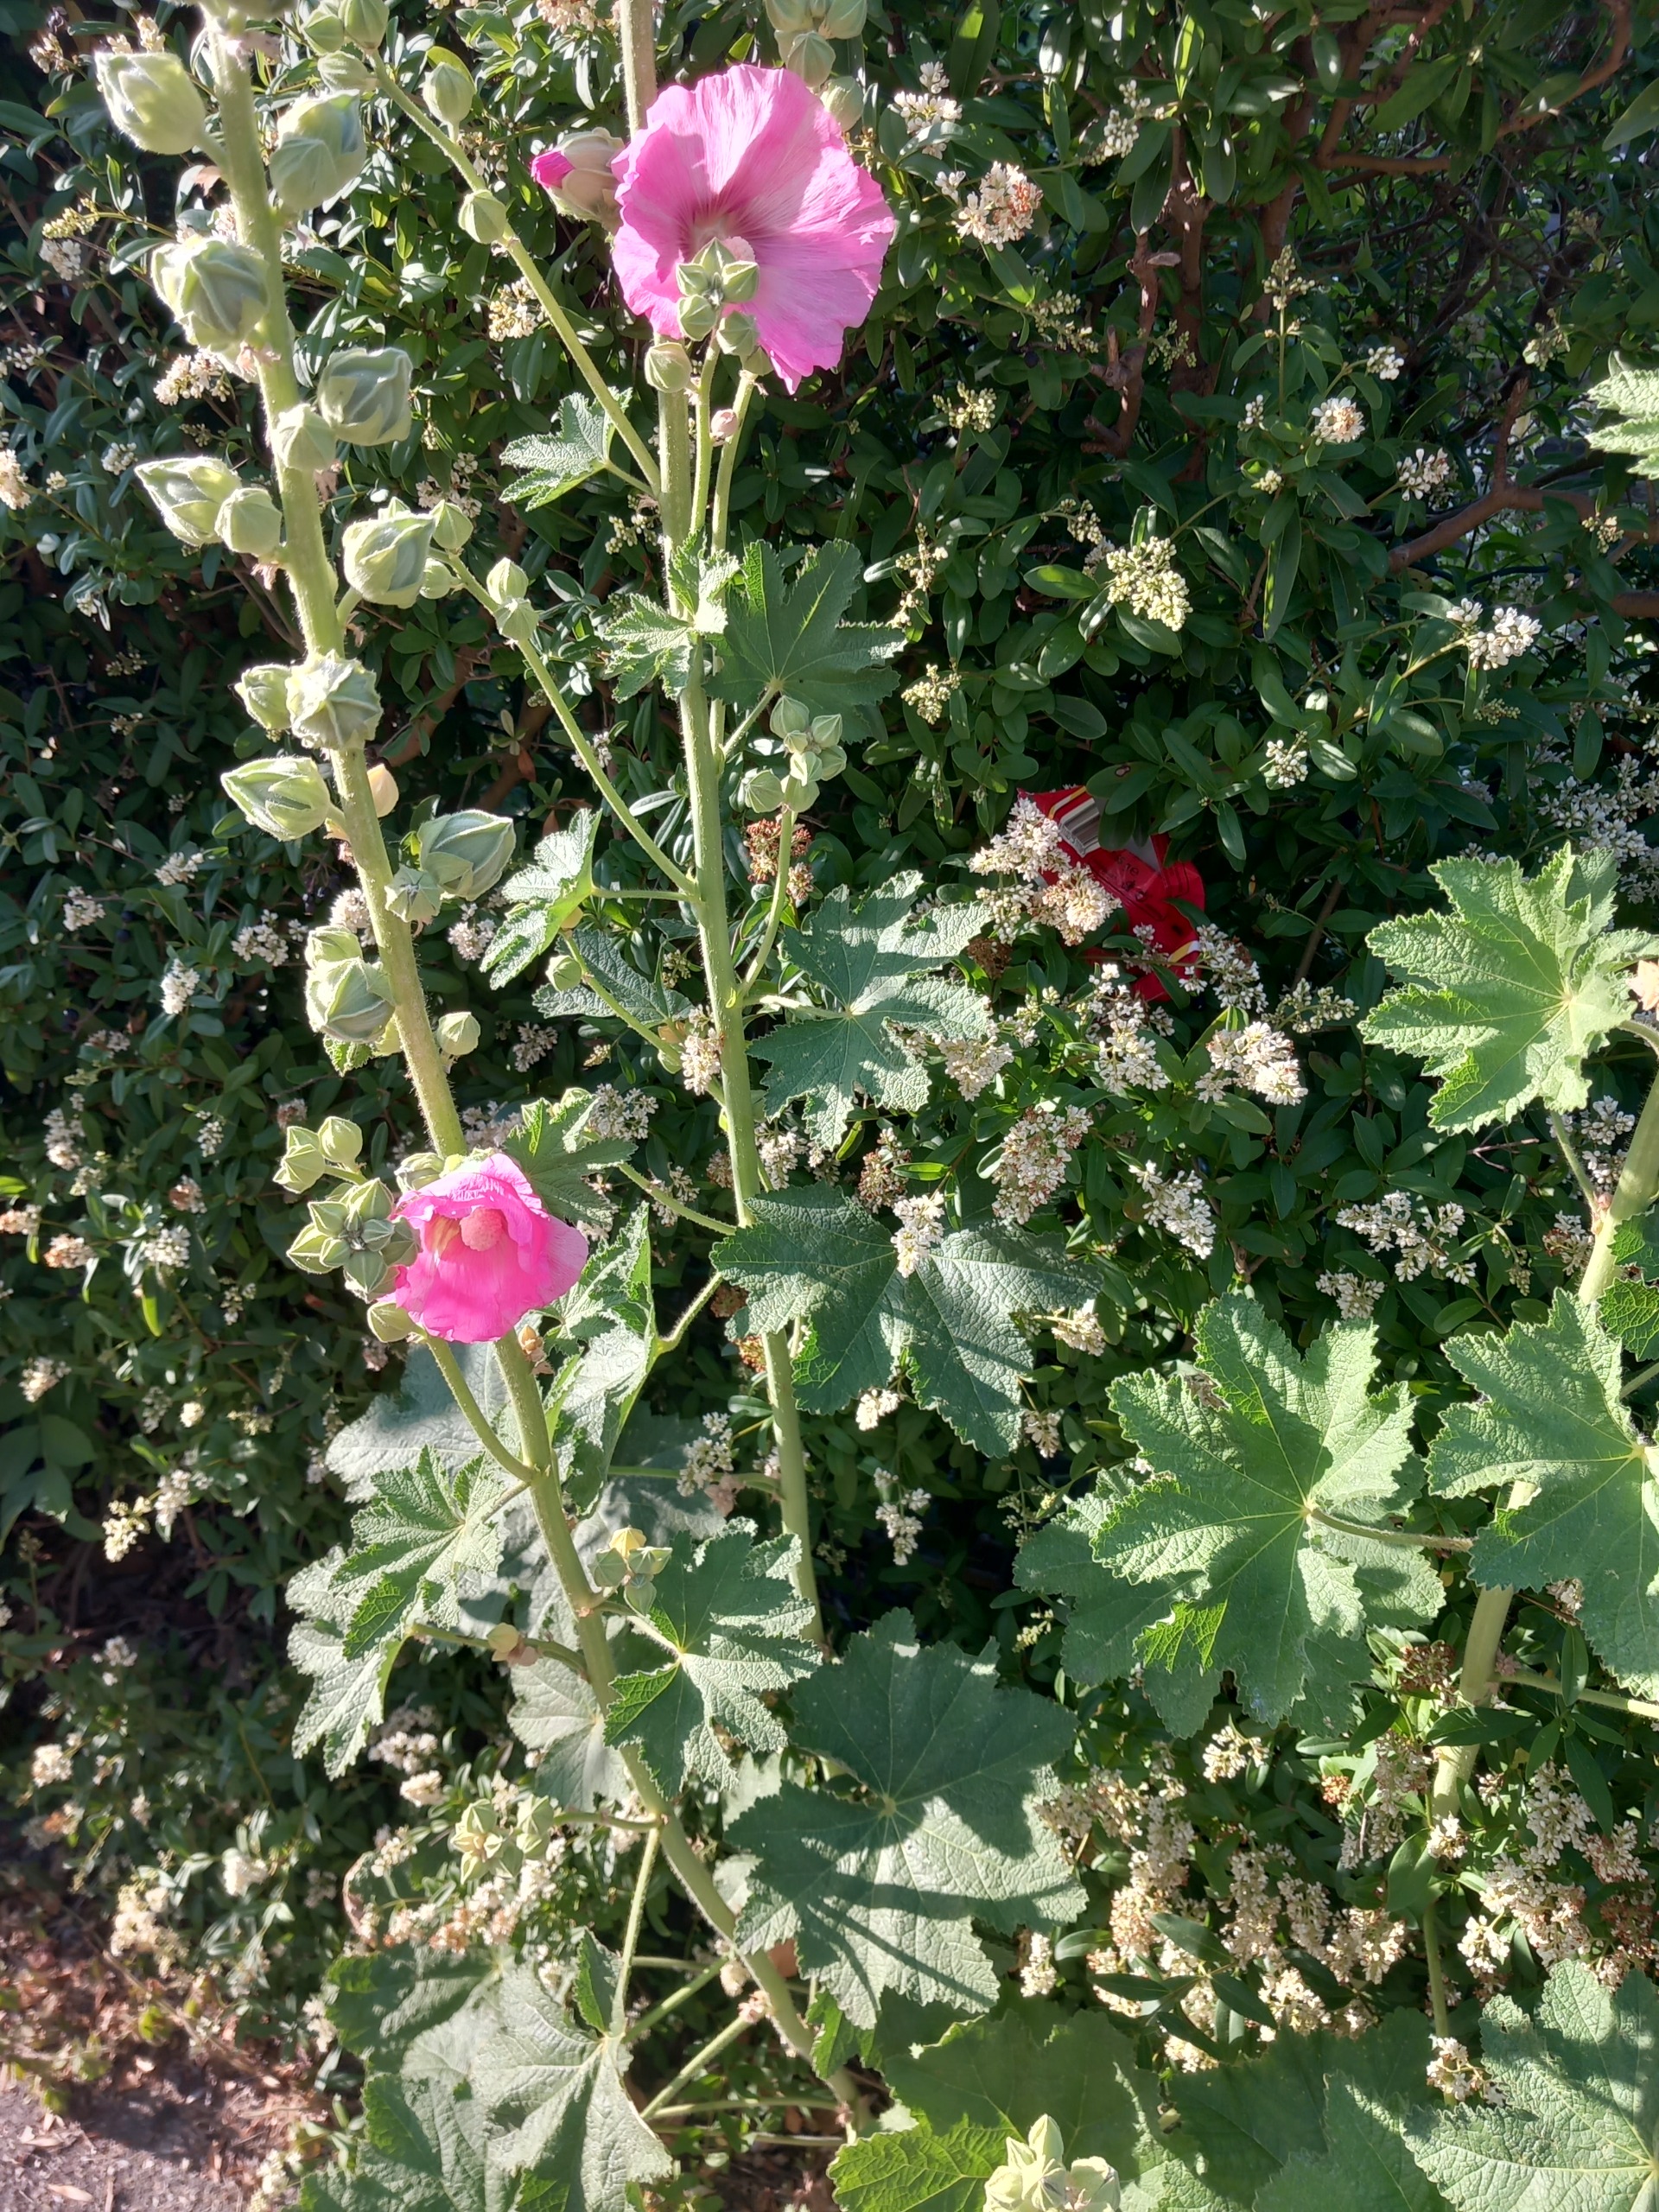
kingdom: Plantae
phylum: Tracheophyta
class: Magnoliopsida
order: Malvales
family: Malvaceae
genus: Alcea
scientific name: Alcea rosea
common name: Have-stokrose
